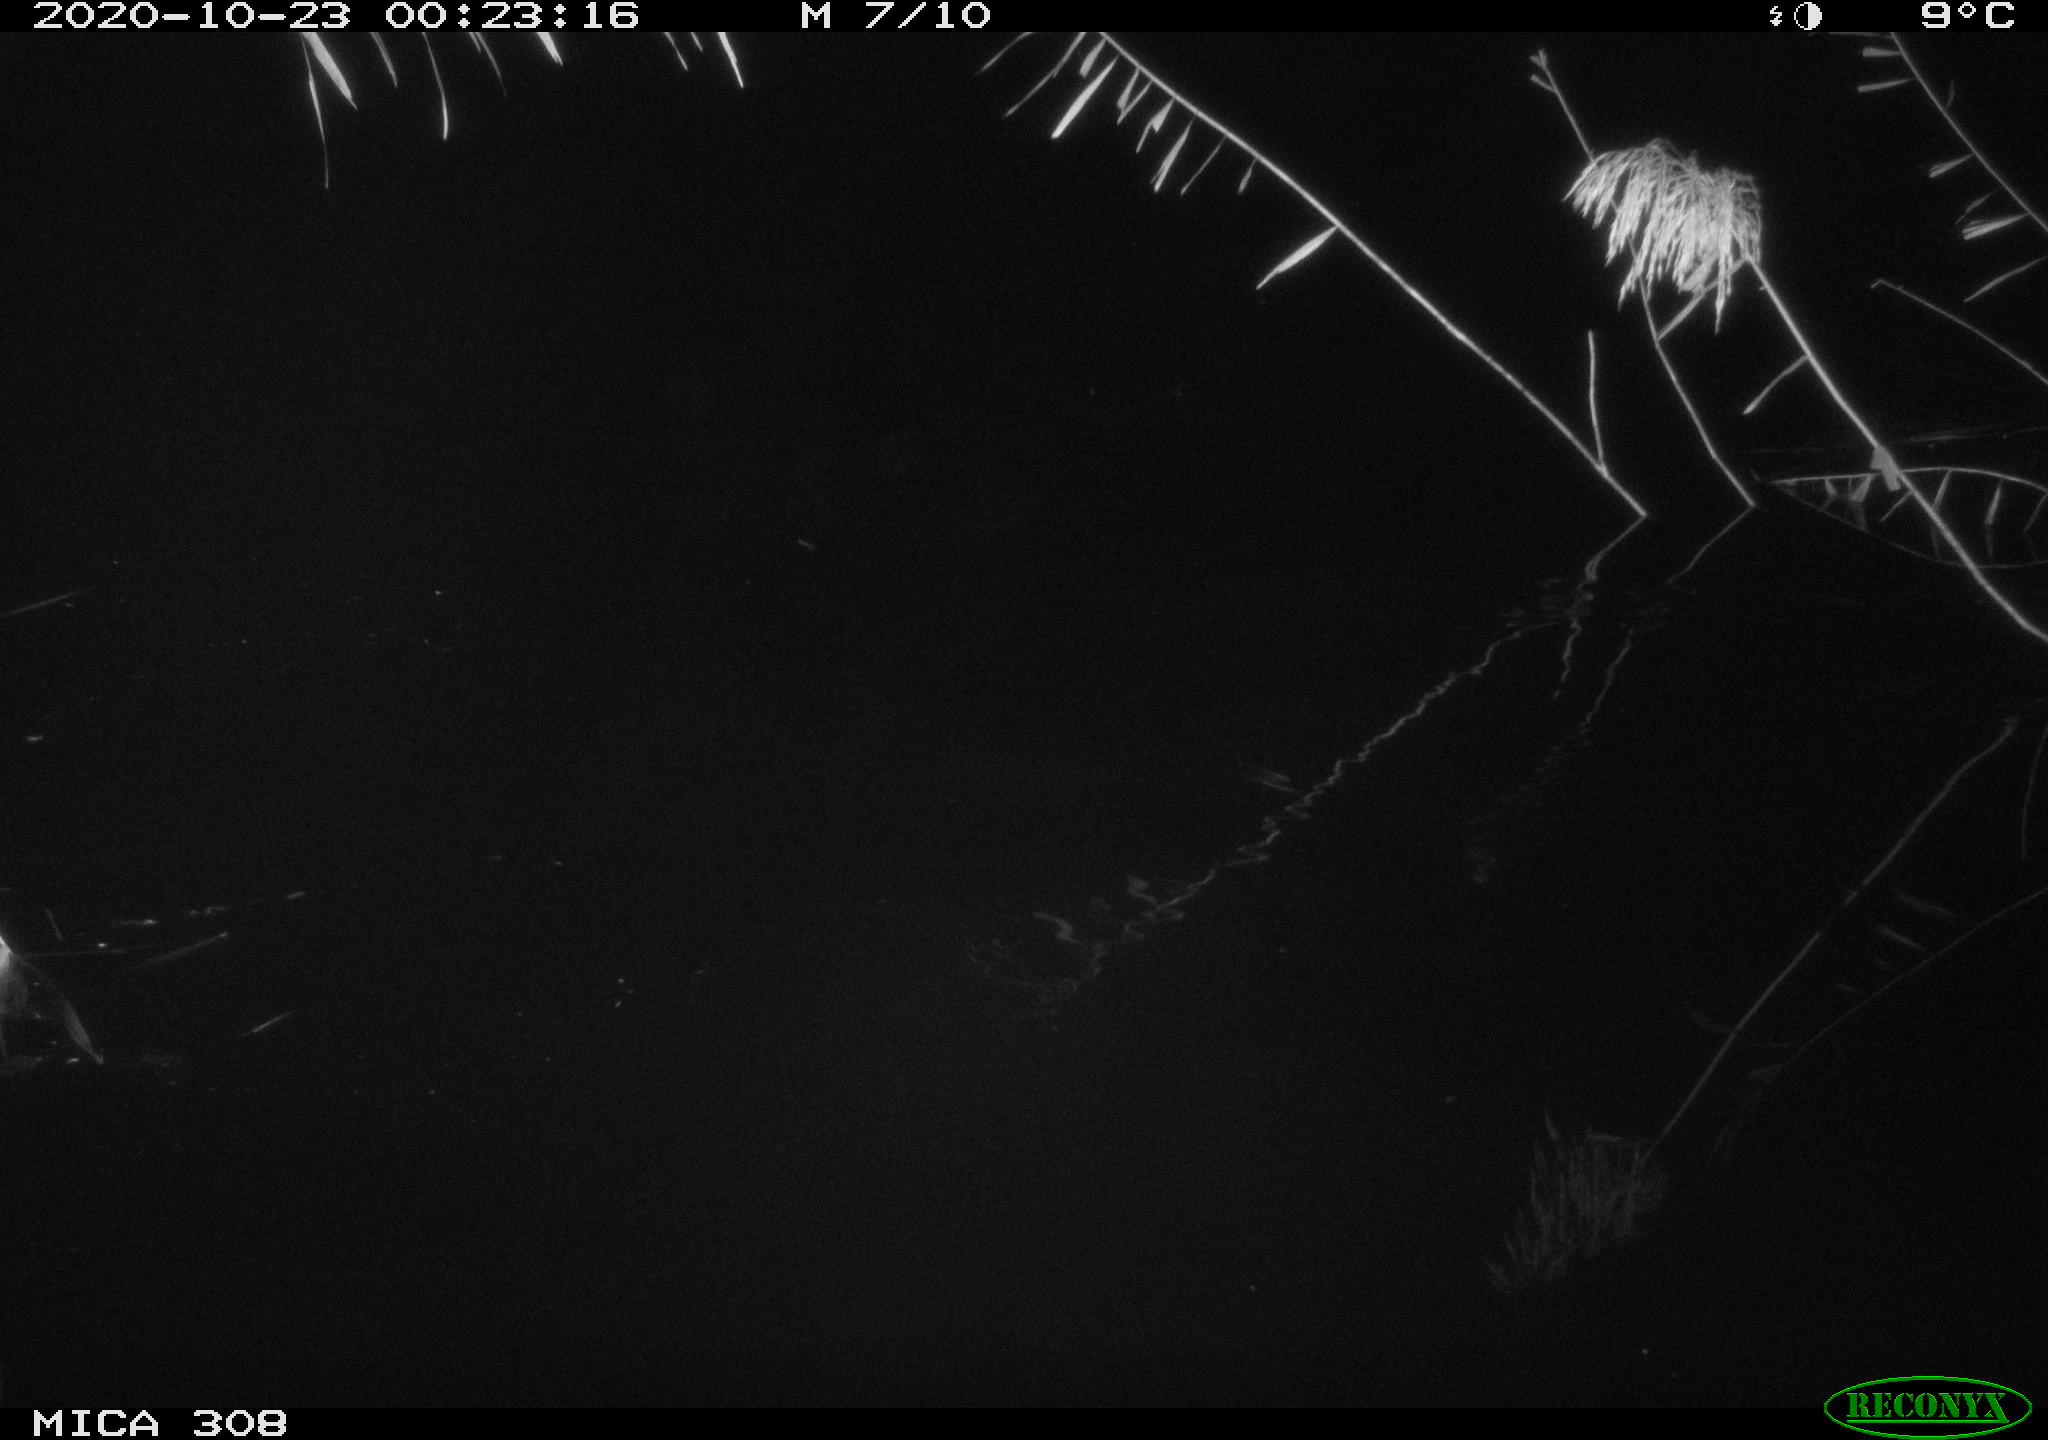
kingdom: Animalia
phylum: Chordata
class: Mammalia
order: Rodentia
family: Muridae
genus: Rattus
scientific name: Rattus norvegicus
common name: Brown rat
